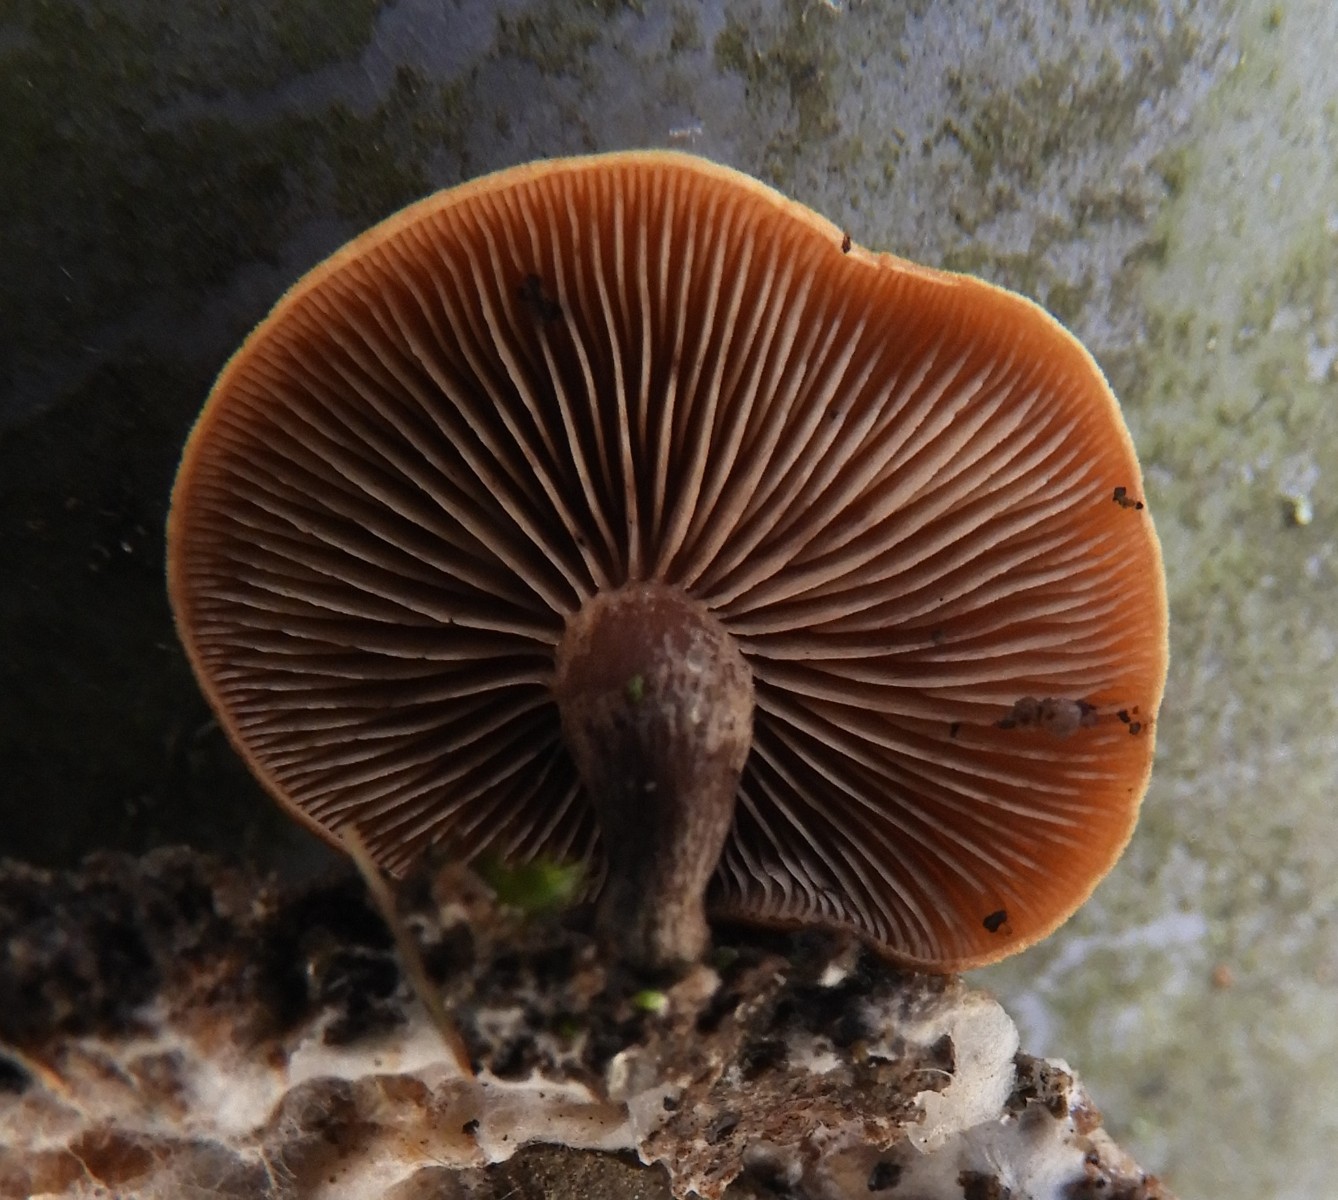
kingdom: Fungi
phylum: Basidiomycota
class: Agaricomycetes
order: Agaricales
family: Strophariaceae
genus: Deconica
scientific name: Deconica horizontalis
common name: ved-stråhat
